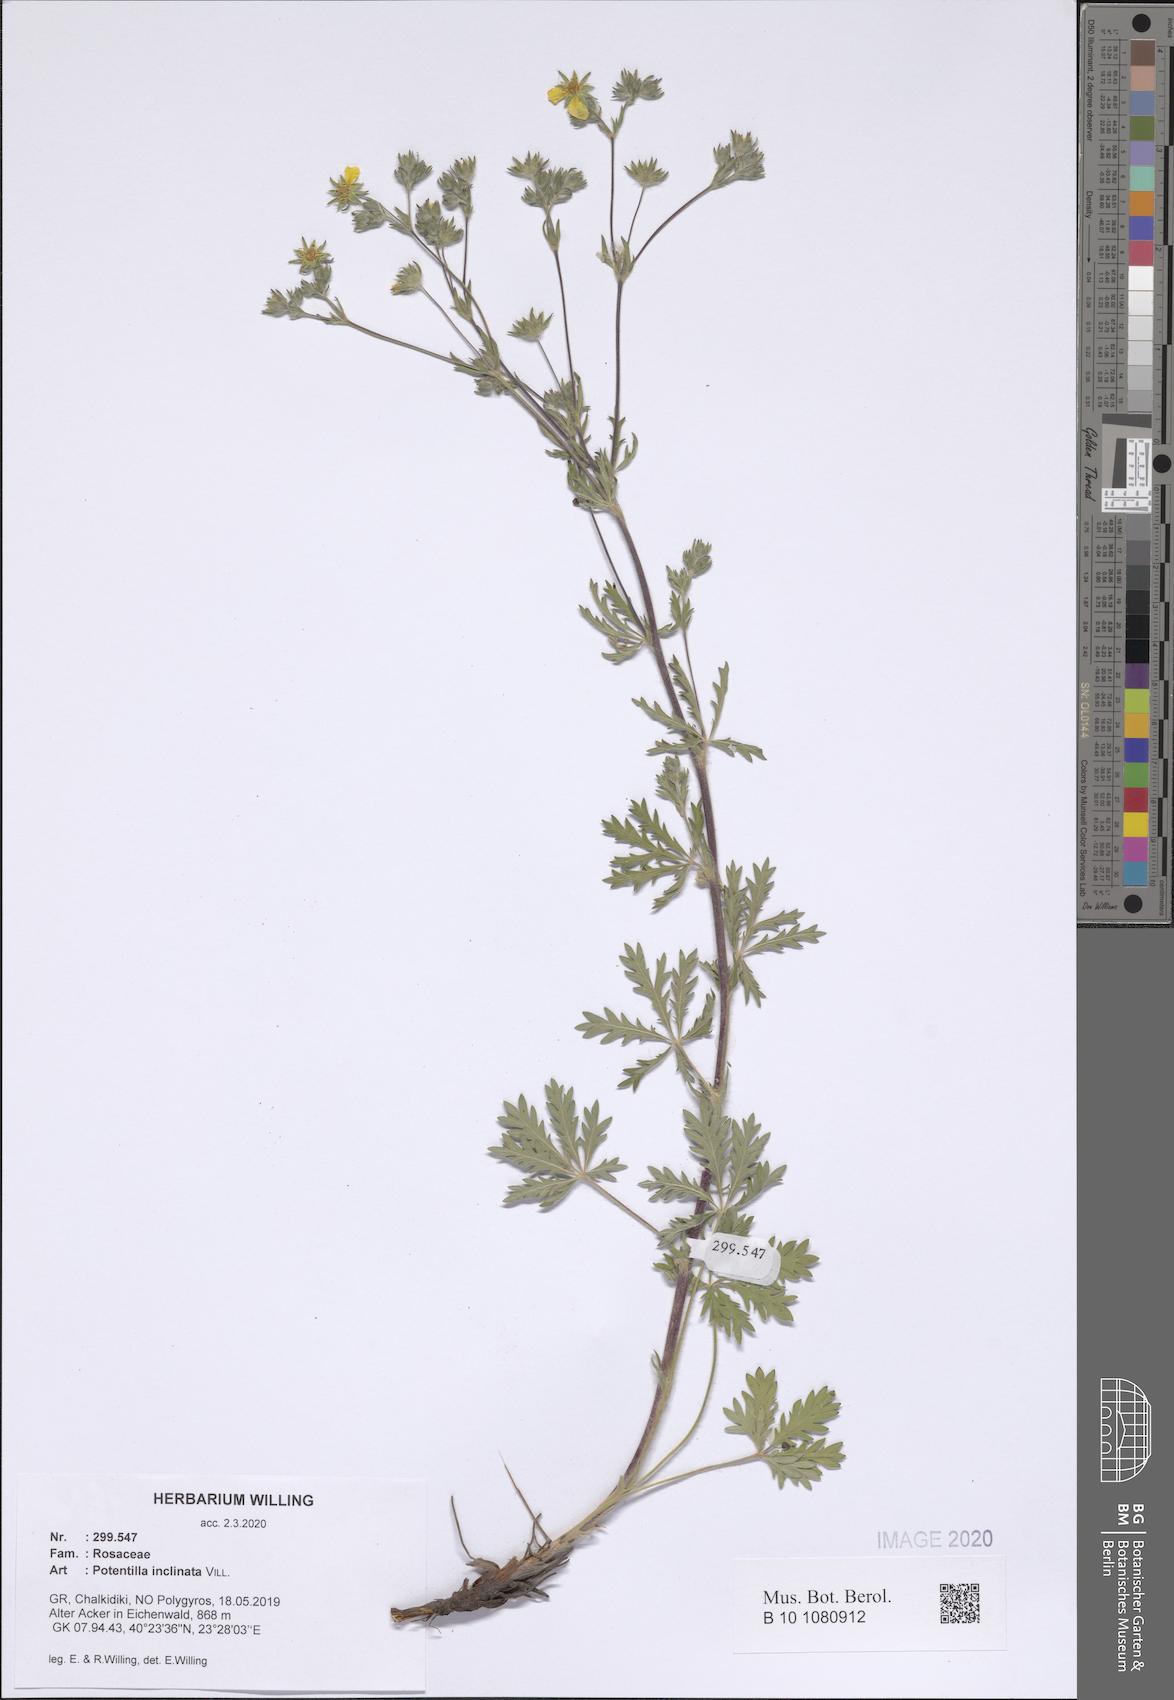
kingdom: Plantae
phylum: Tracheophyta
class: Magnoliopsida
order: Rosales
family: Rosaceae
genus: Potentilla
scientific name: Potentilla inclinata
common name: Grey cinquefoil
